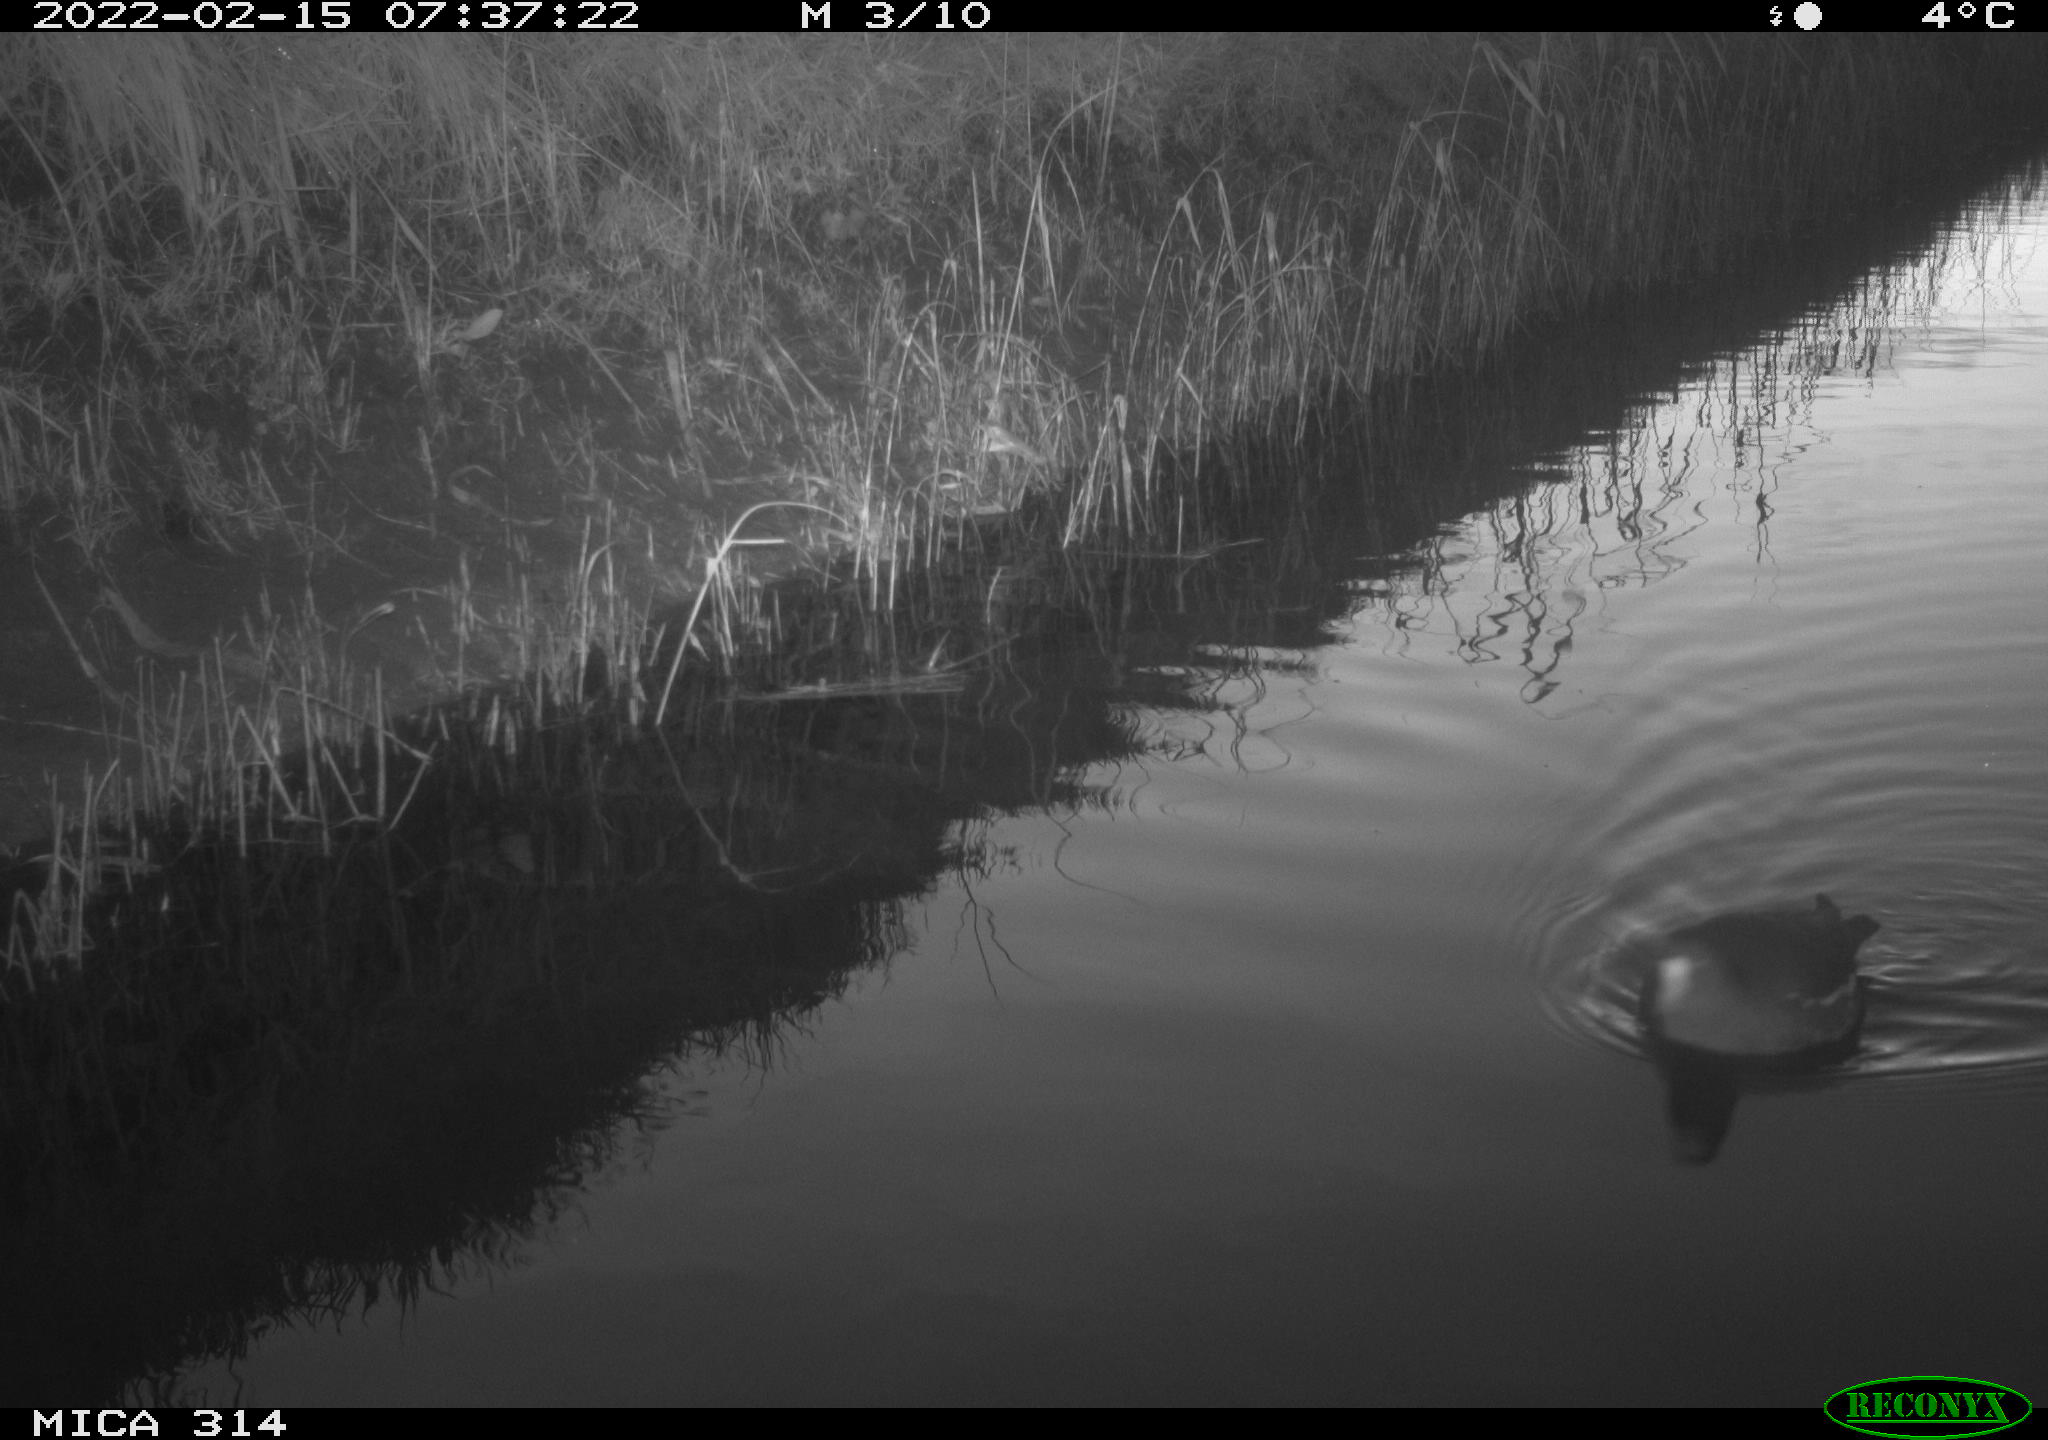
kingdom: Animalia
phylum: Chordata
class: Aves
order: Gruiformes
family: Rallidae
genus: Gallinula
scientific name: Gallinula chloropus
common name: Common moorhen
